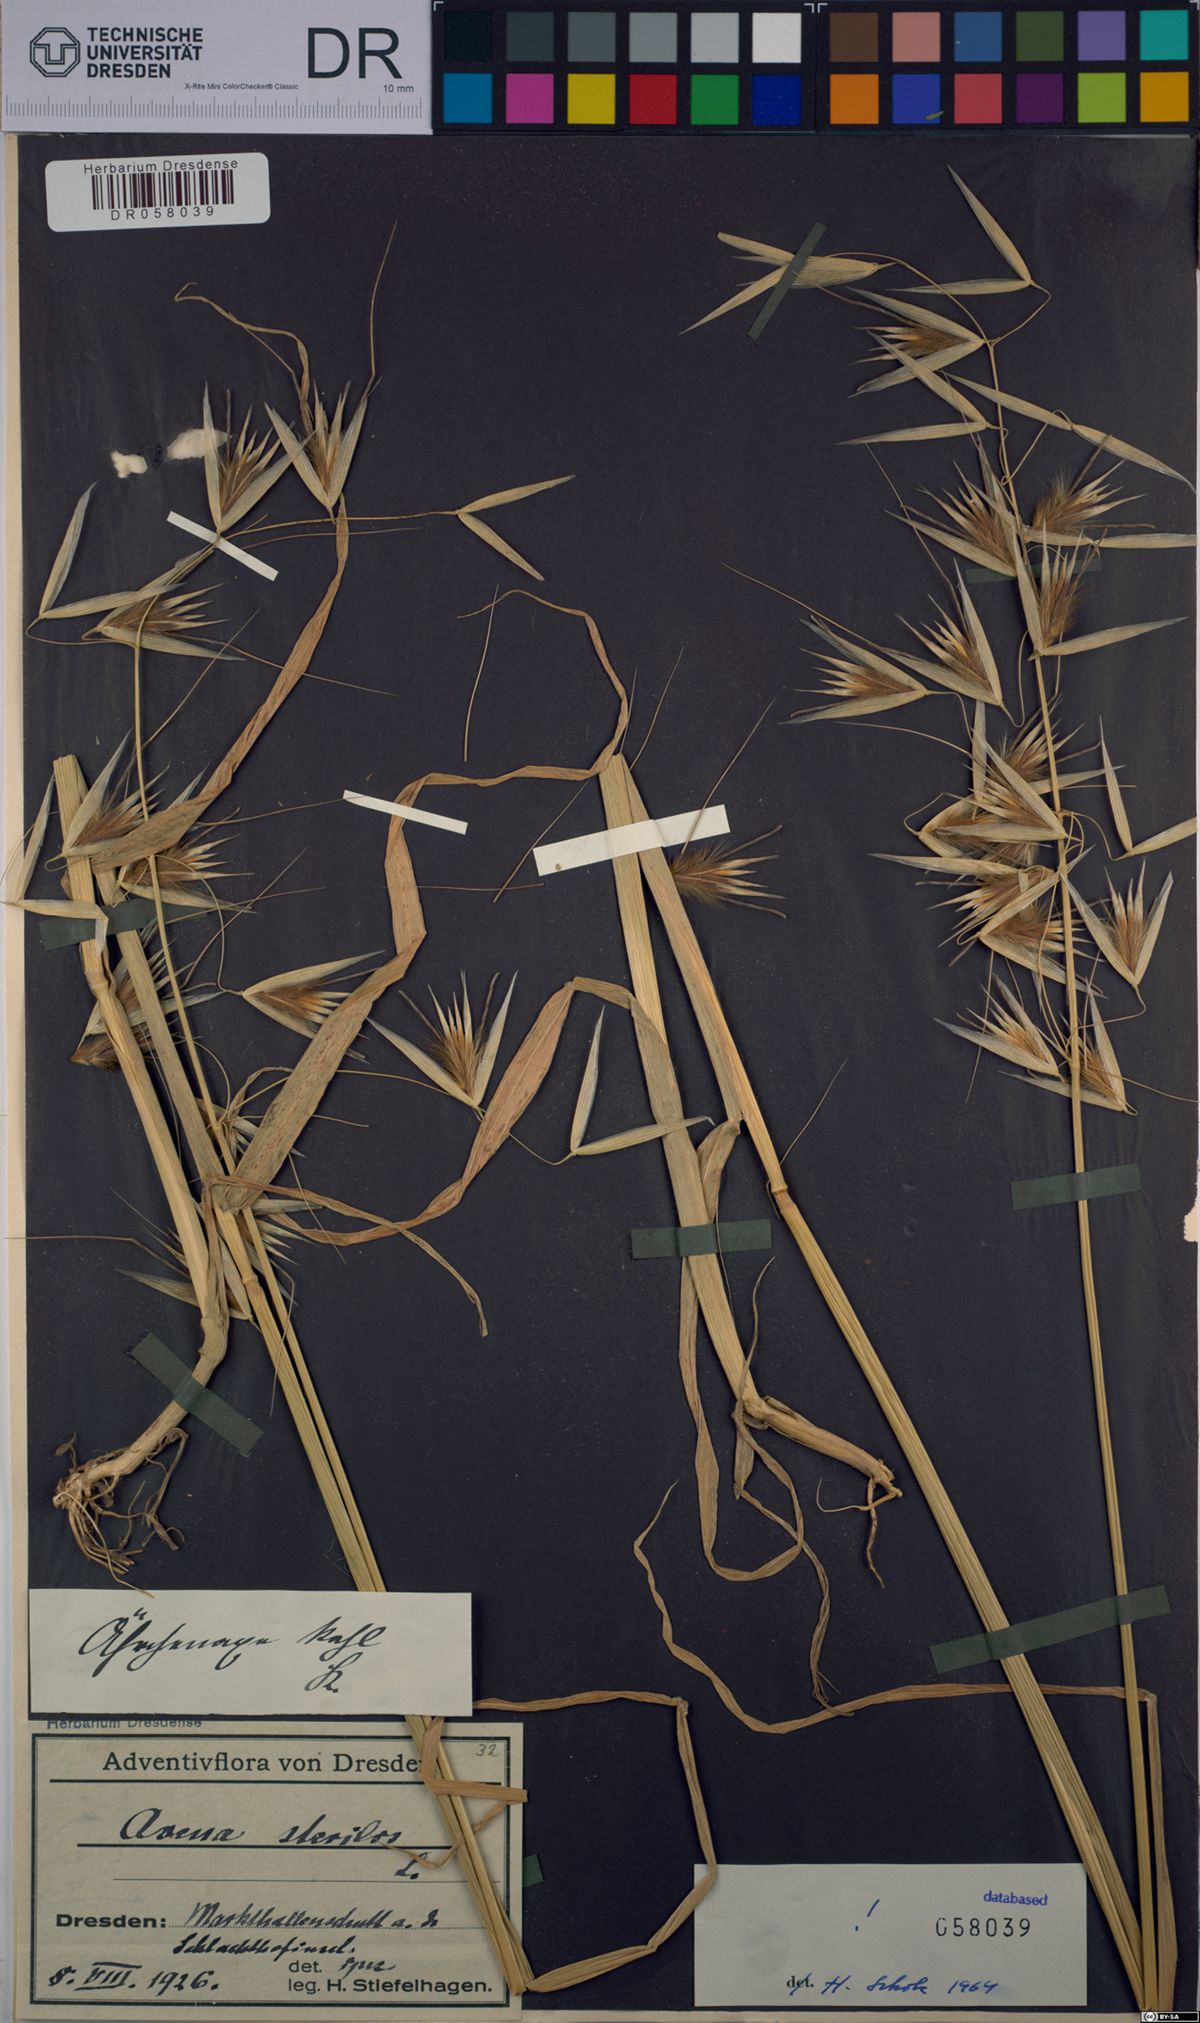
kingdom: Plantae
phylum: Tracheophyta
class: Liliopsida
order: Poales
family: Poaceae
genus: Avena
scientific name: Avena sterilis
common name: Animated oat
